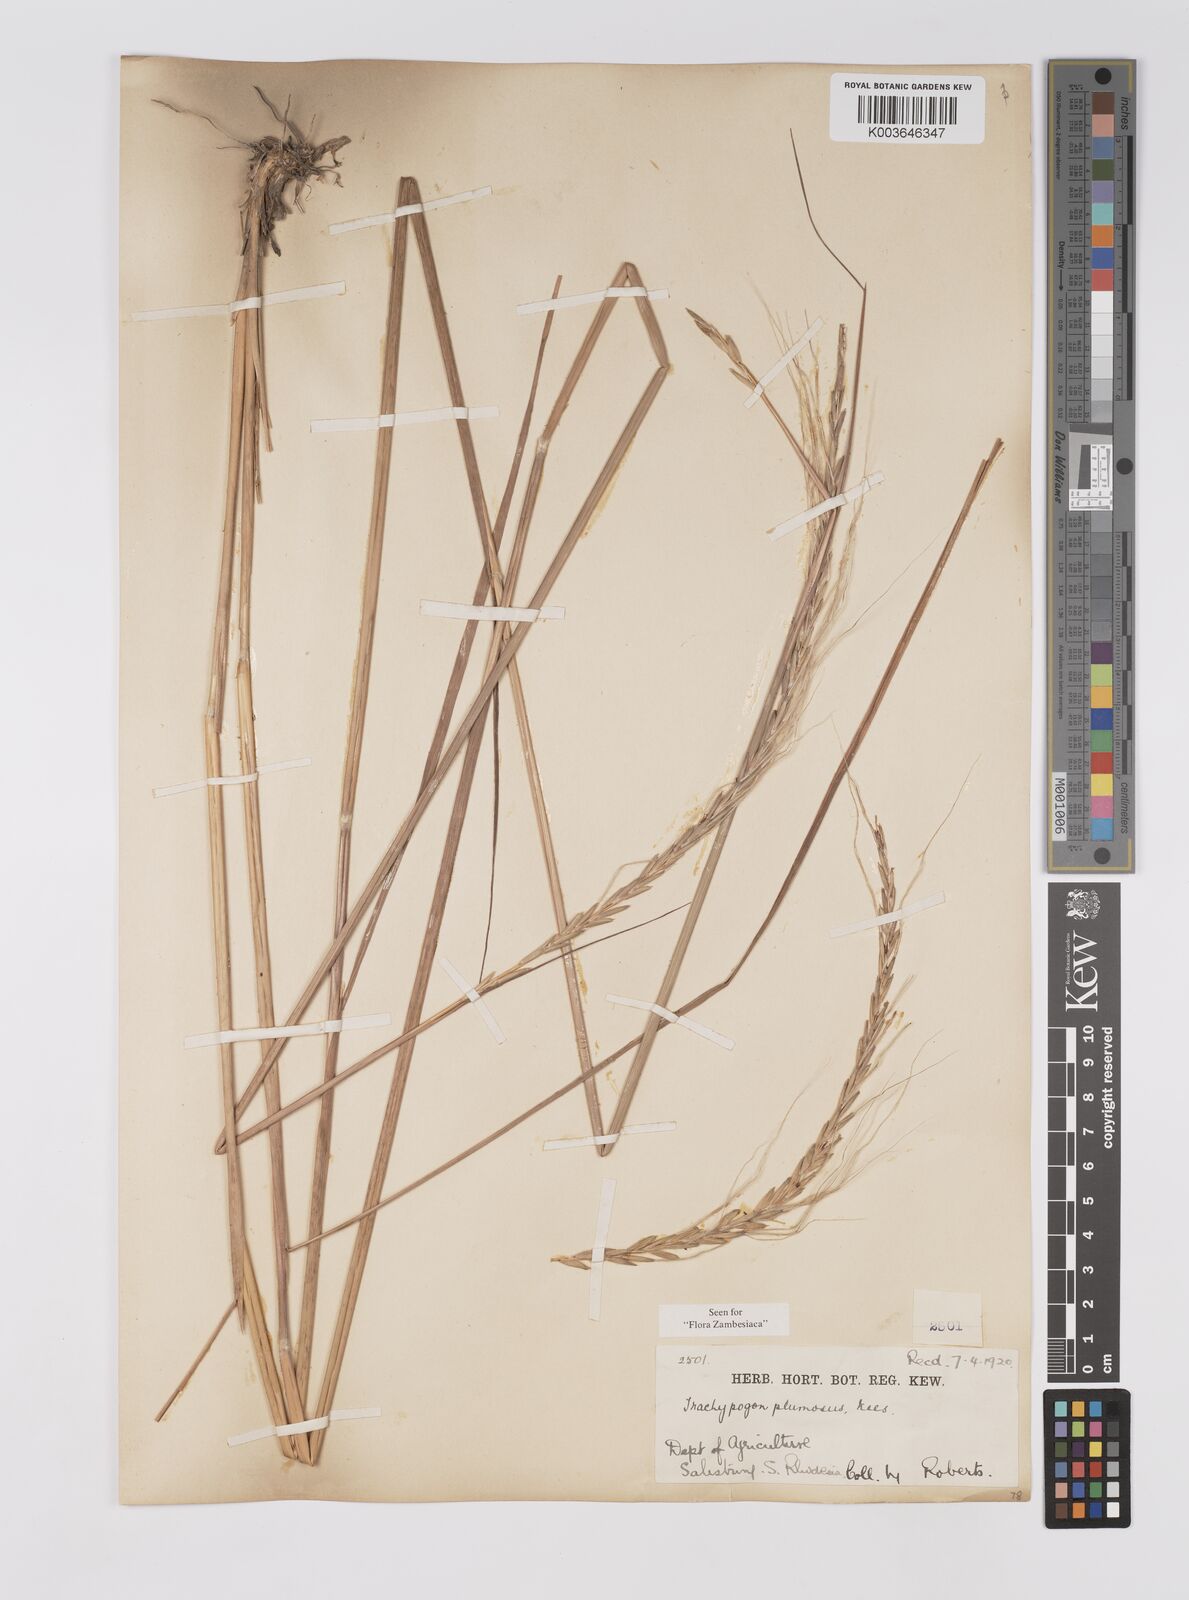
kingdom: Plantae
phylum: Tracheophyta
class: Liliopsida
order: Poales
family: Poaceae
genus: Trachypogon
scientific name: Trachypogon spicatus
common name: Crinkle-awn
